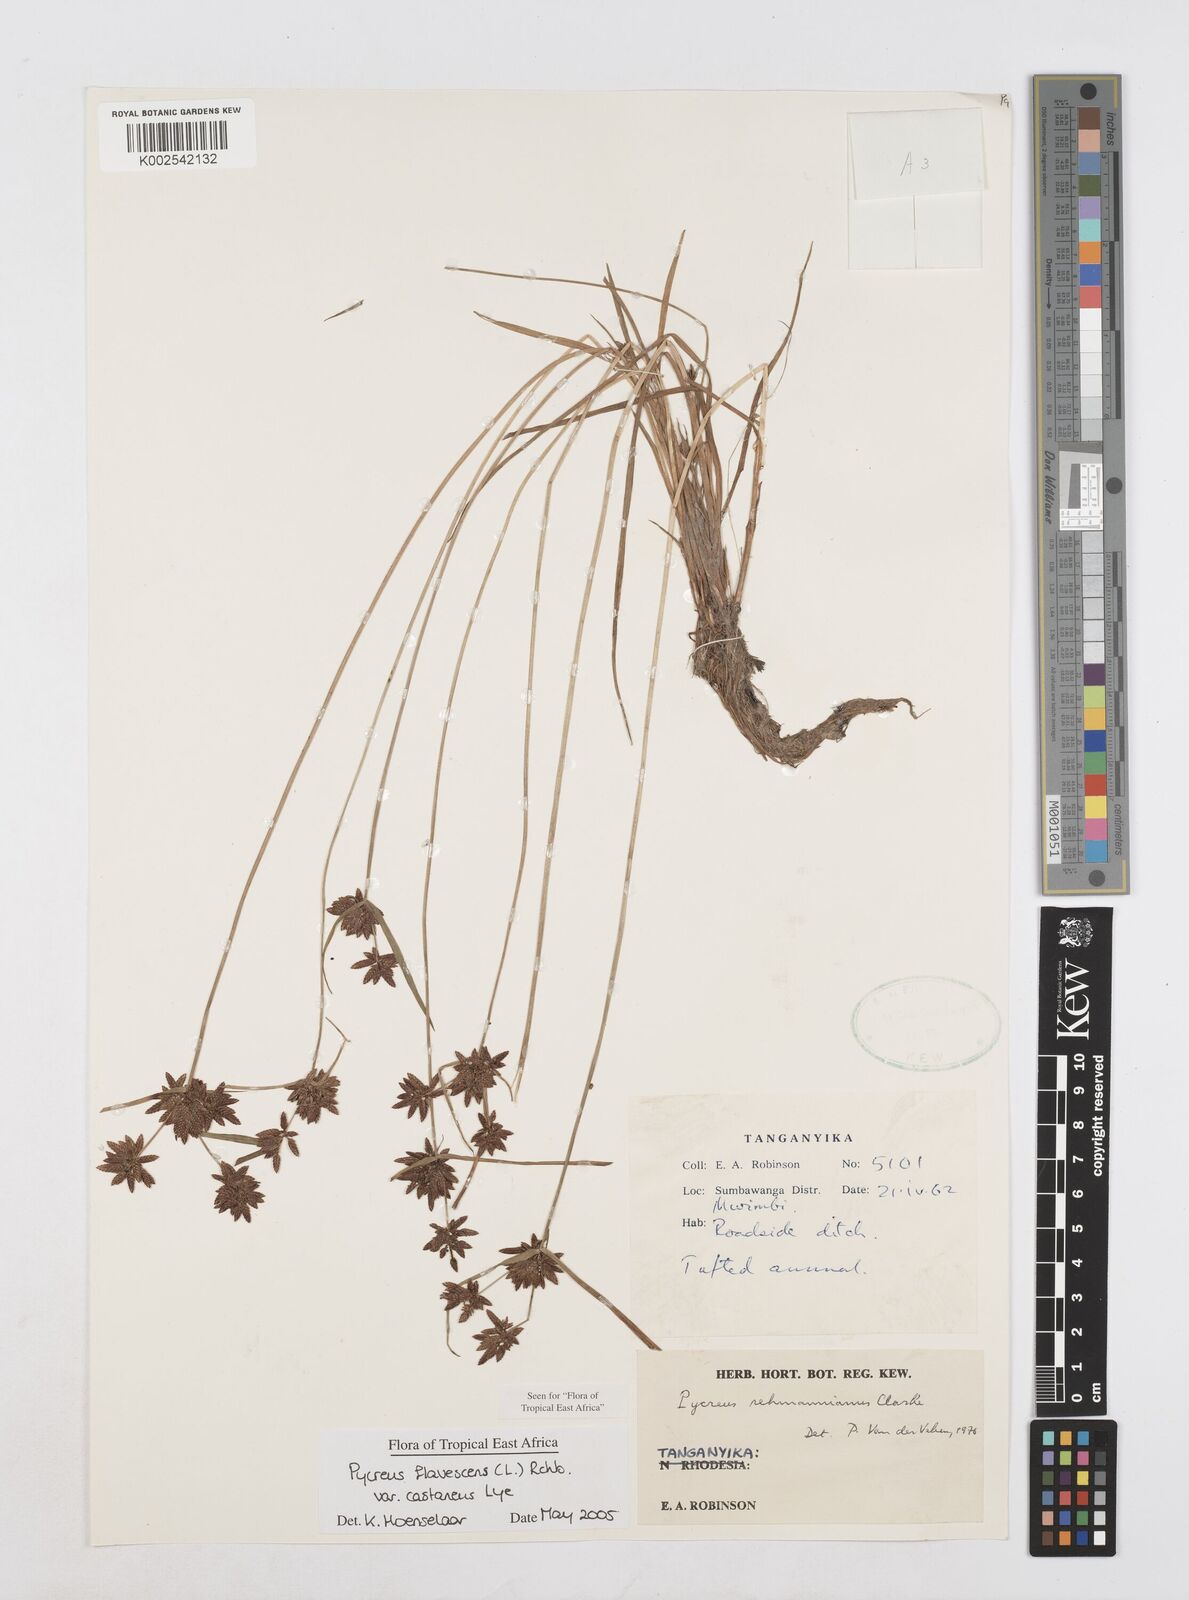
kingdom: Plantae
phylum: Tracheophyta
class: Liliopsida
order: Poales
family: Cyperaceae
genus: Cyperus
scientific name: Cyperus flavescens
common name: Yellow galingale
